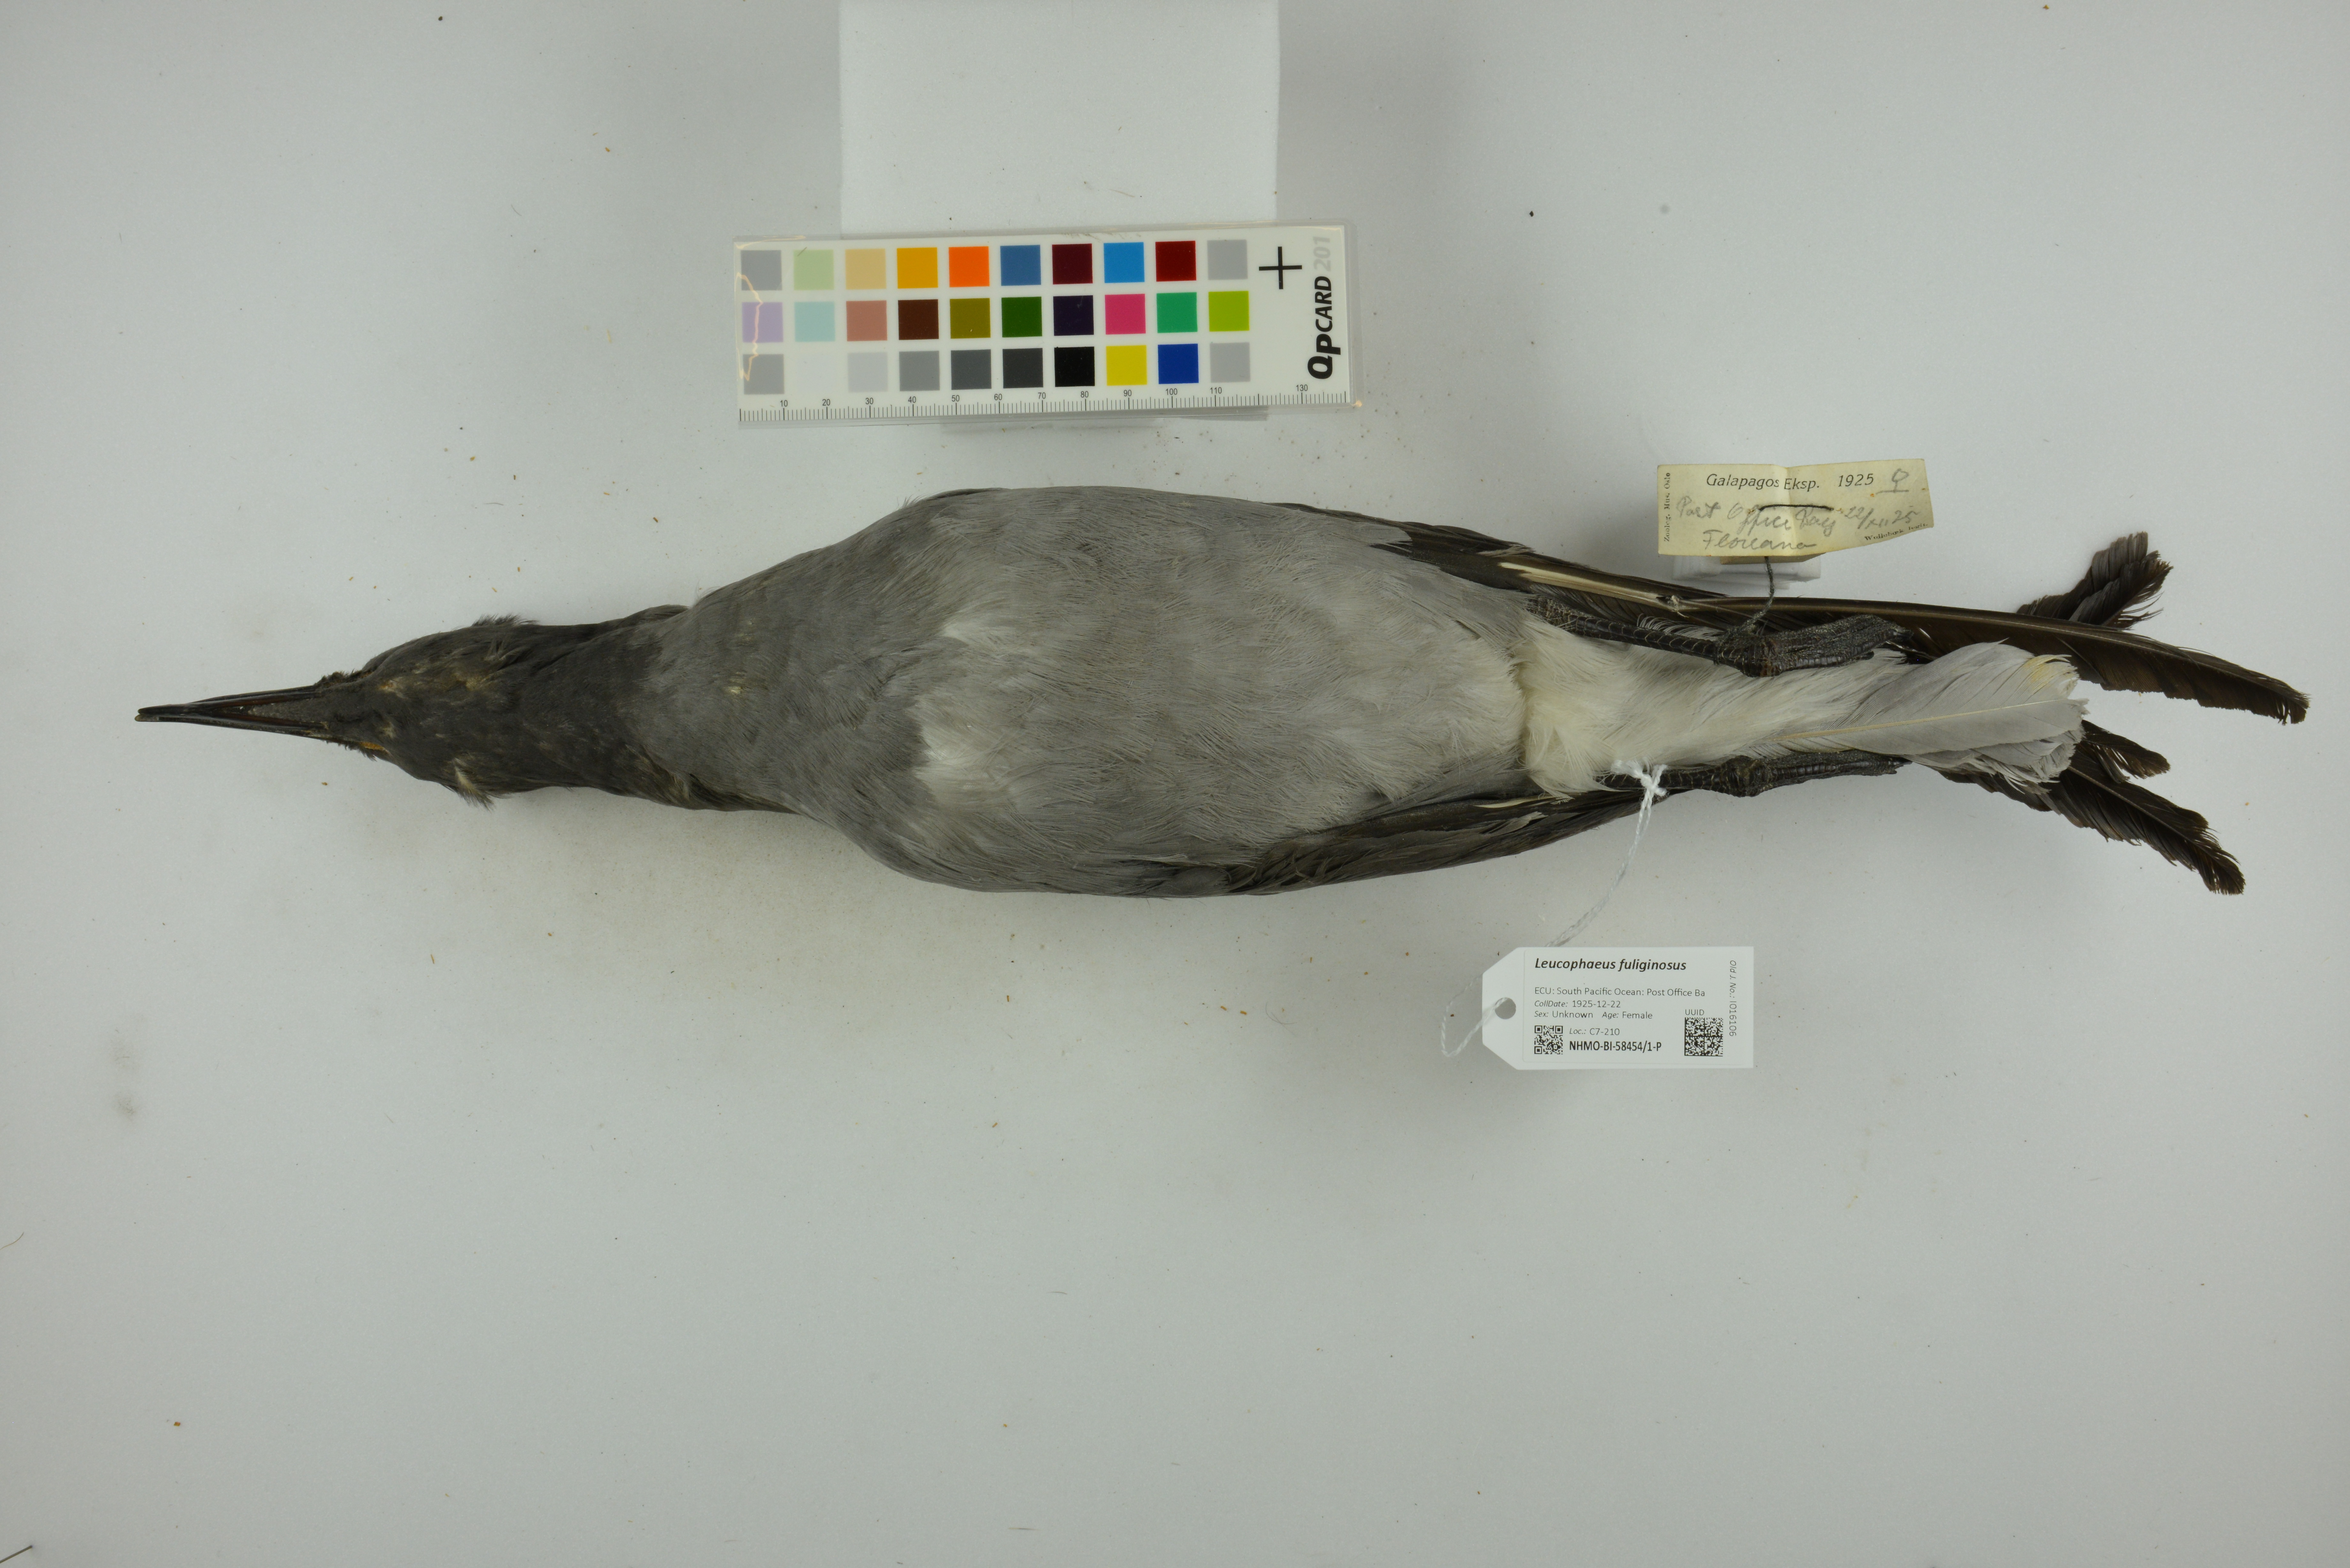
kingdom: Animalia
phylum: Chordata
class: Aves
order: Charadriiformes
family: Laridae
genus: Leucophaeus
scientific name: Leucophaeus fuliginosus
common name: Lava gull
